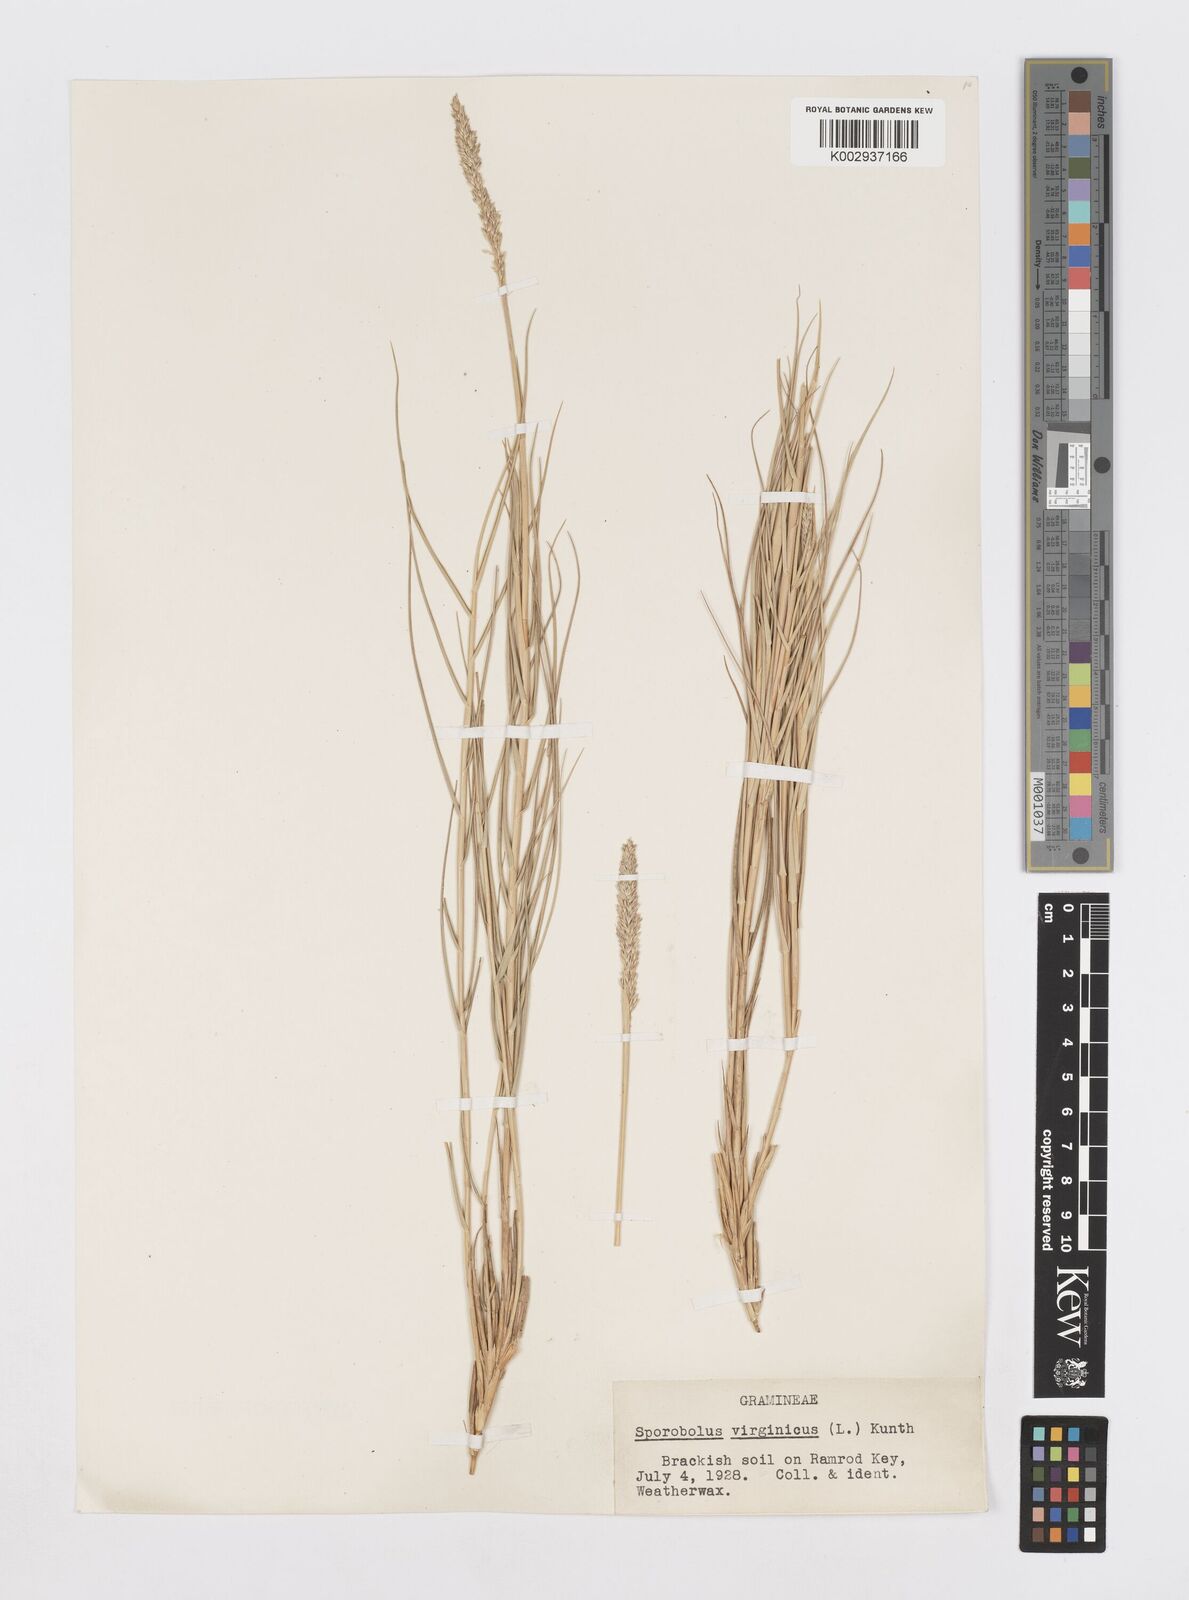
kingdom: Plantae
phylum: Tracheophyta
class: Liliopsida
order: Poales
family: Poaceae
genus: Sporobolus
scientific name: Sporobolus virginicus
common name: Beach dropseed
